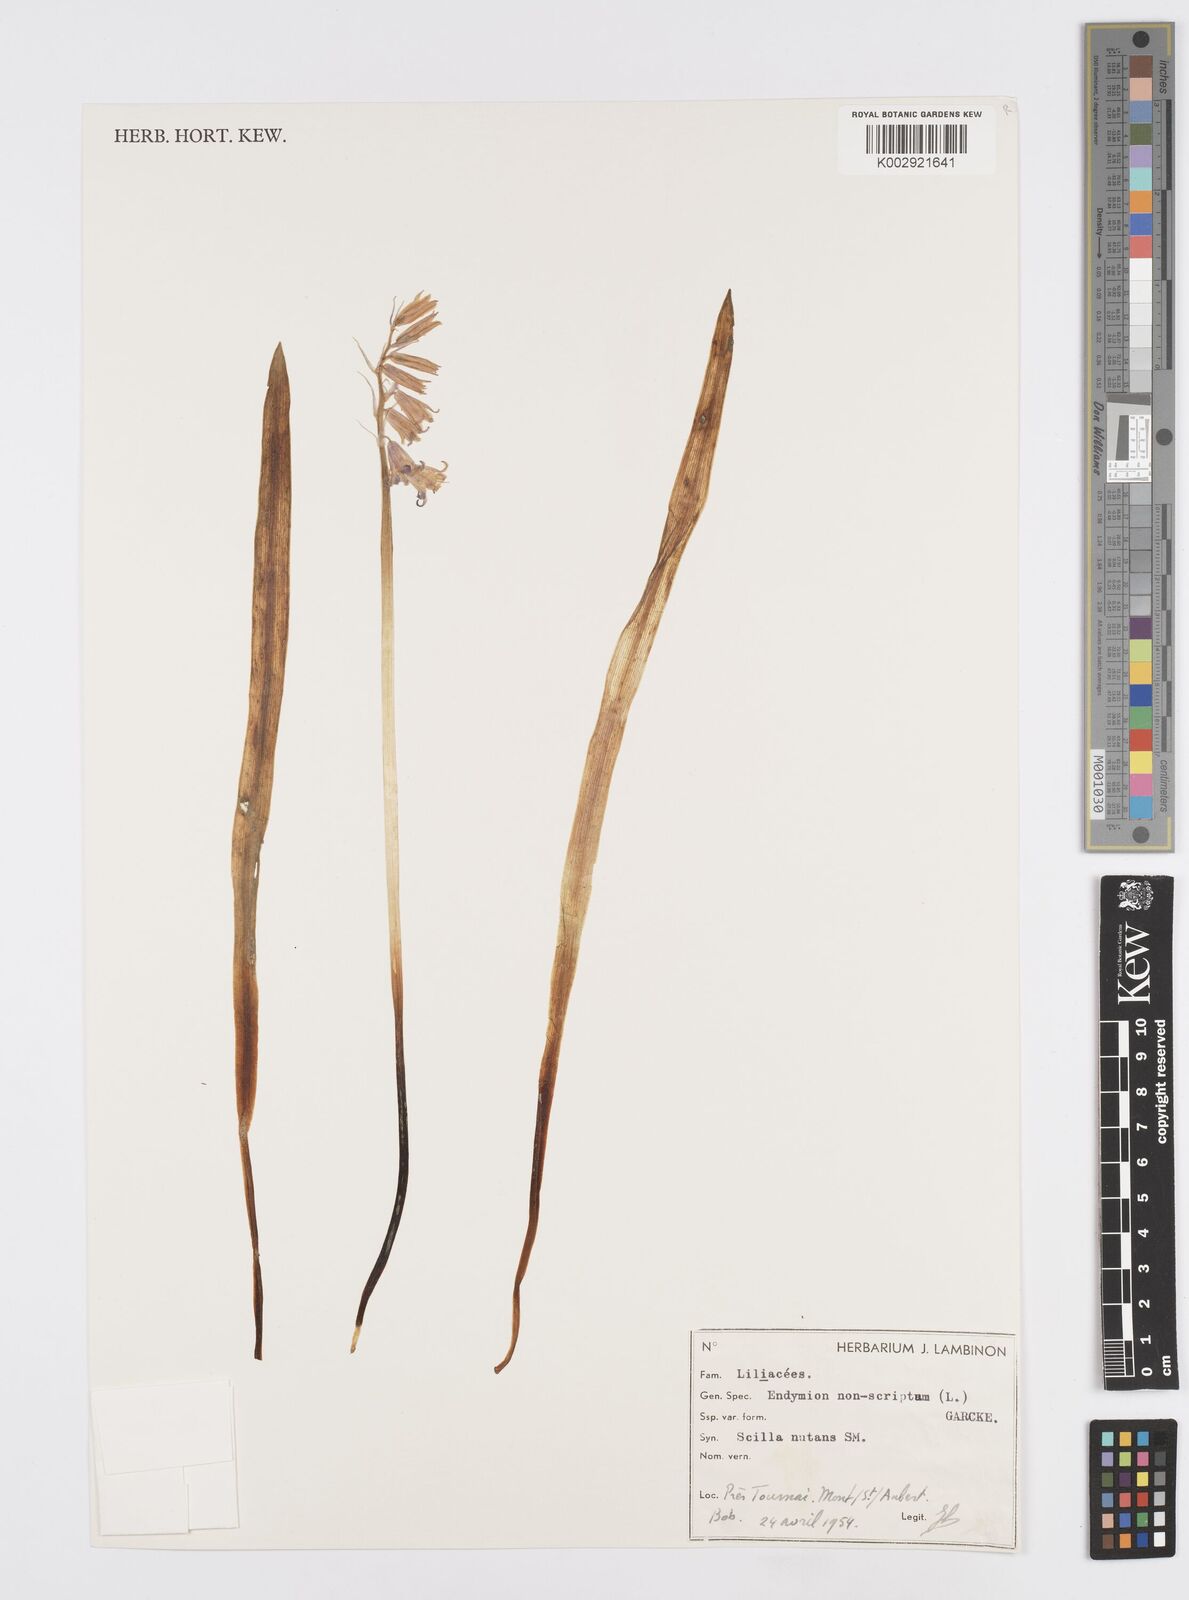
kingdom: Plantae
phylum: Tracheophyta
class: Liliopsida
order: Asparagales
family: Asparagaceae
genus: Hyacinthoides
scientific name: Hyacinthoides non-scripta
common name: Bluebell
